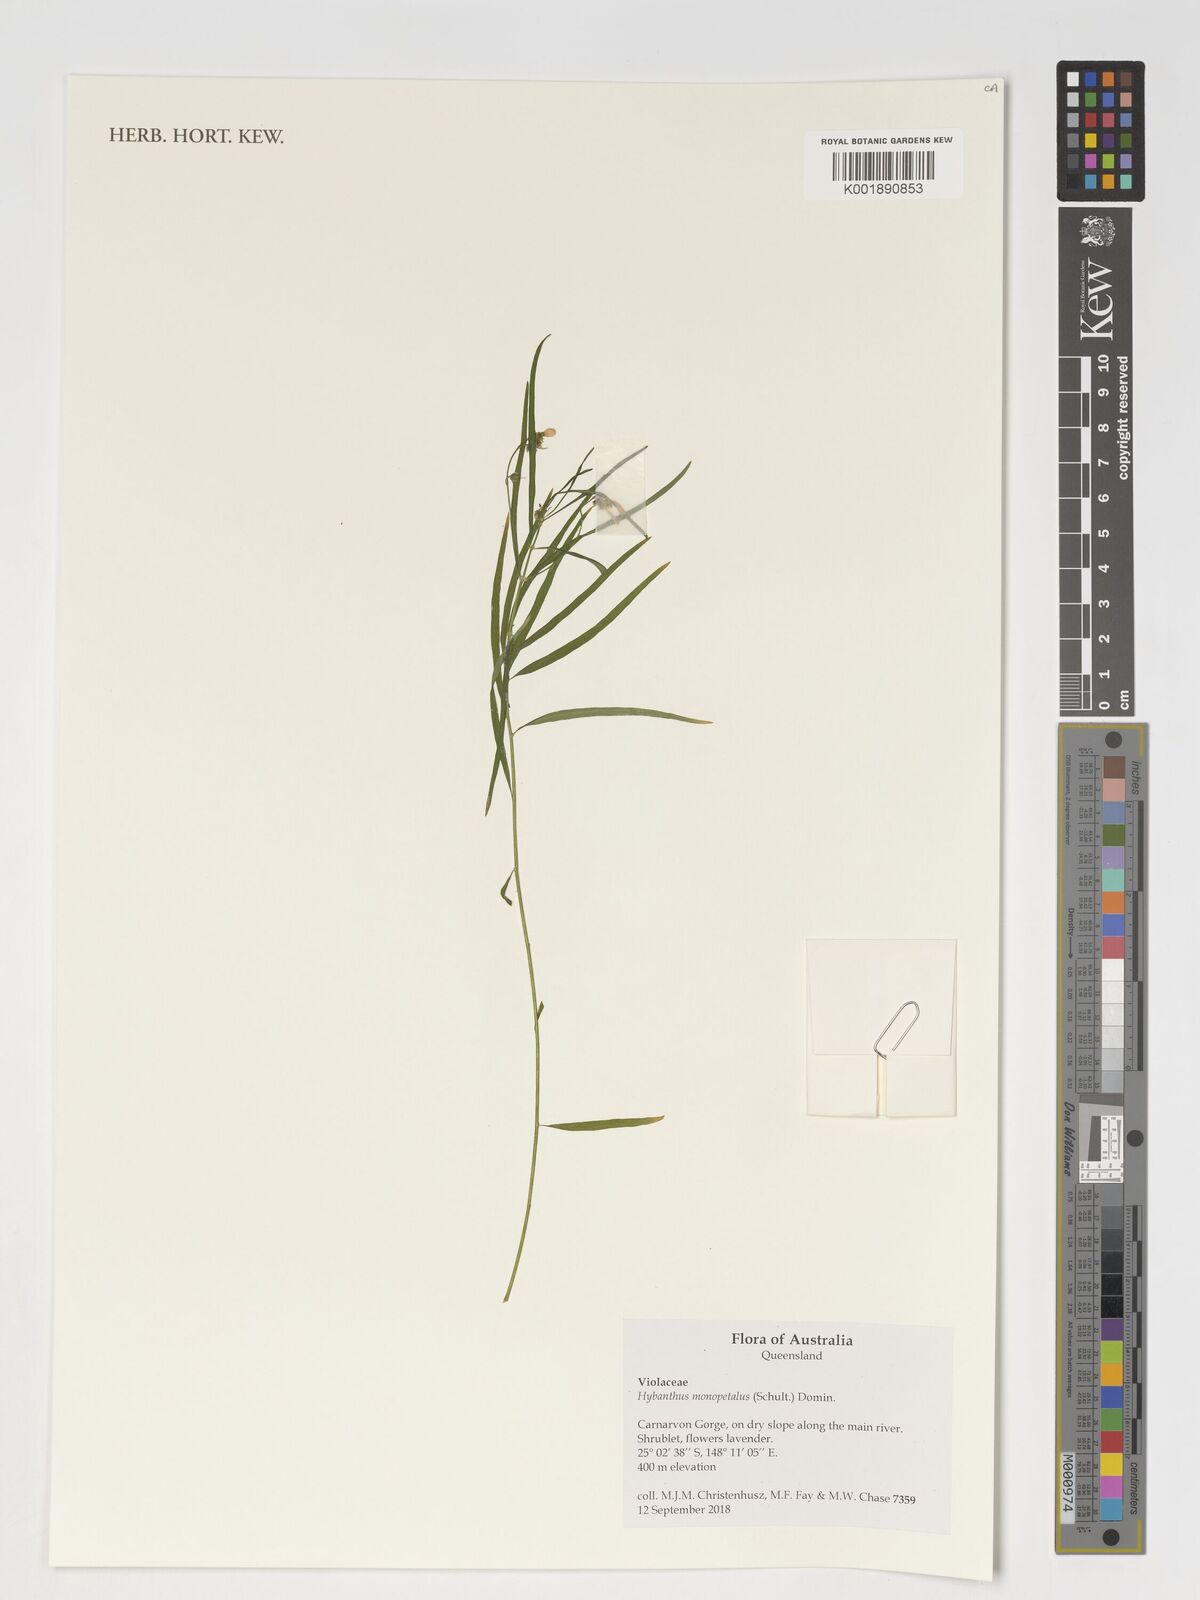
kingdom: Plantae
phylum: Tracheophyta
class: Magnoliopsida
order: Malpighiales
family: Violaceae
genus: Pigea
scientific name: Pigea monopetala
